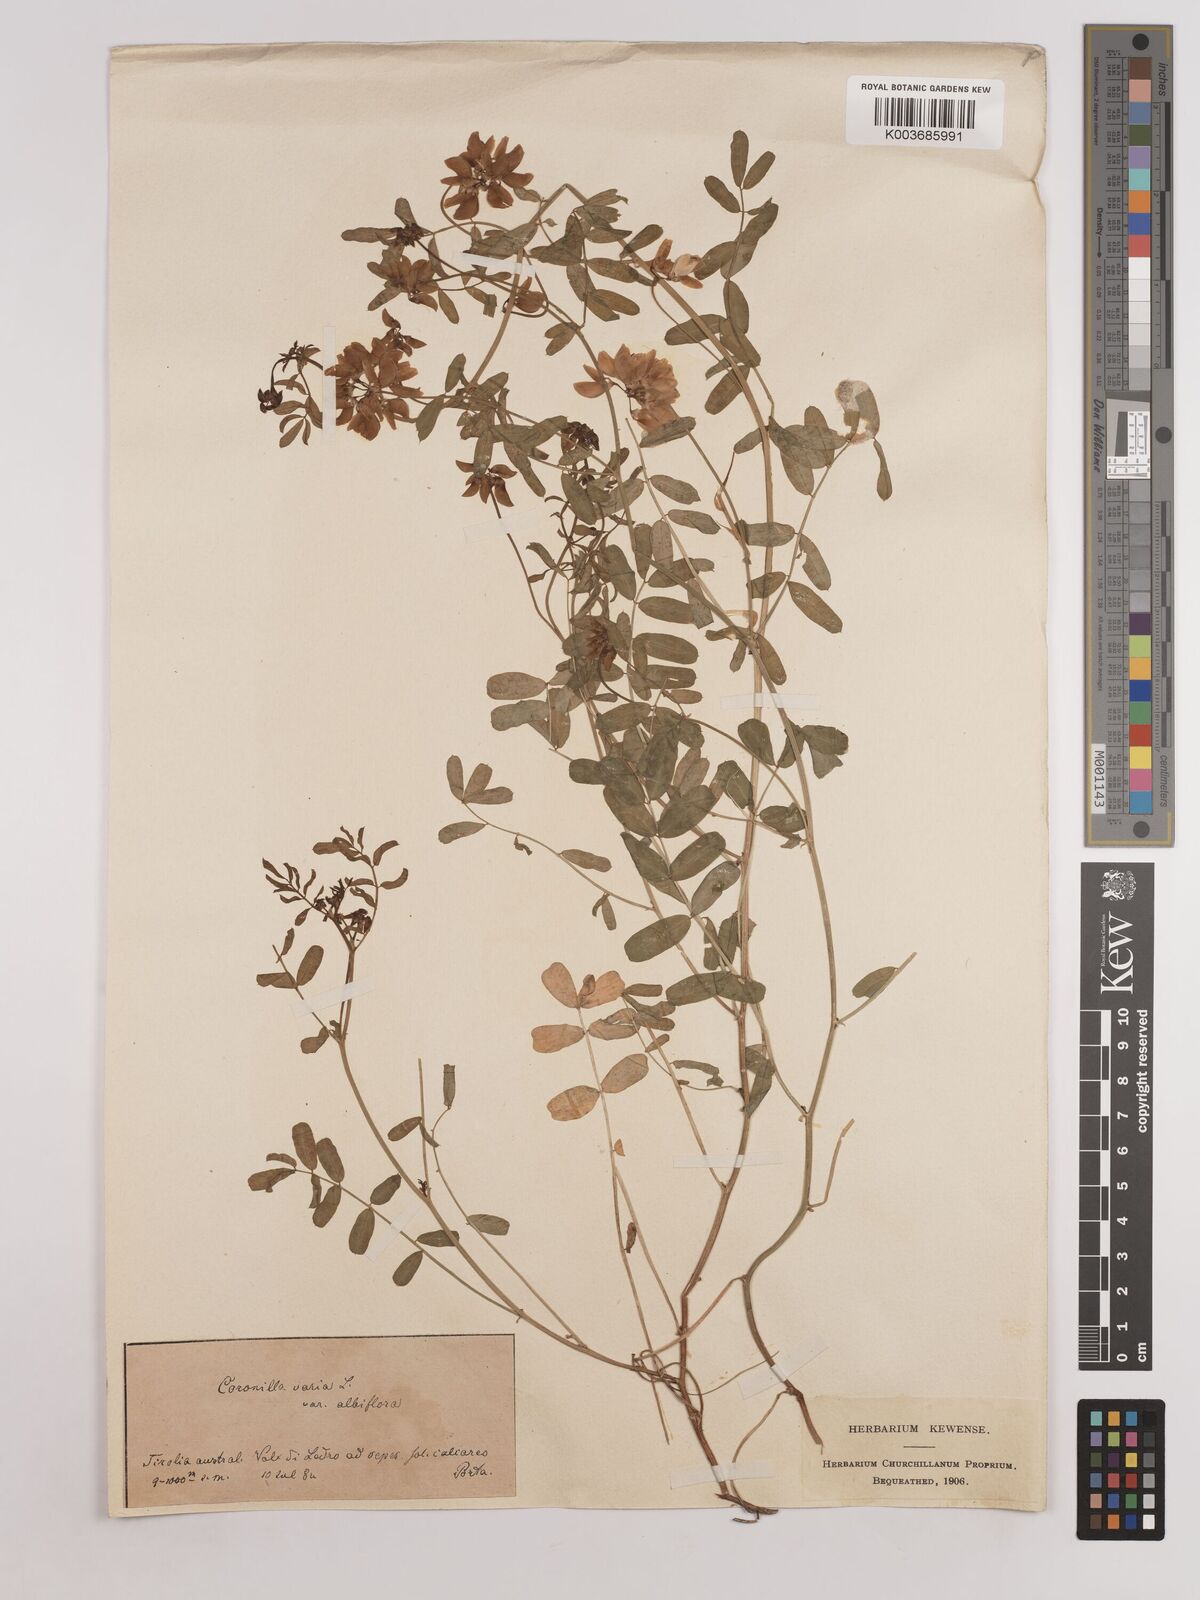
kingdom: Plantae
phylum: Tracheophyta
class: Magnoliopsida
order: Fabales
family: Fabaceae
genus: Coronilla
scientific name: Coronilla varia
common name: Crownvetch
